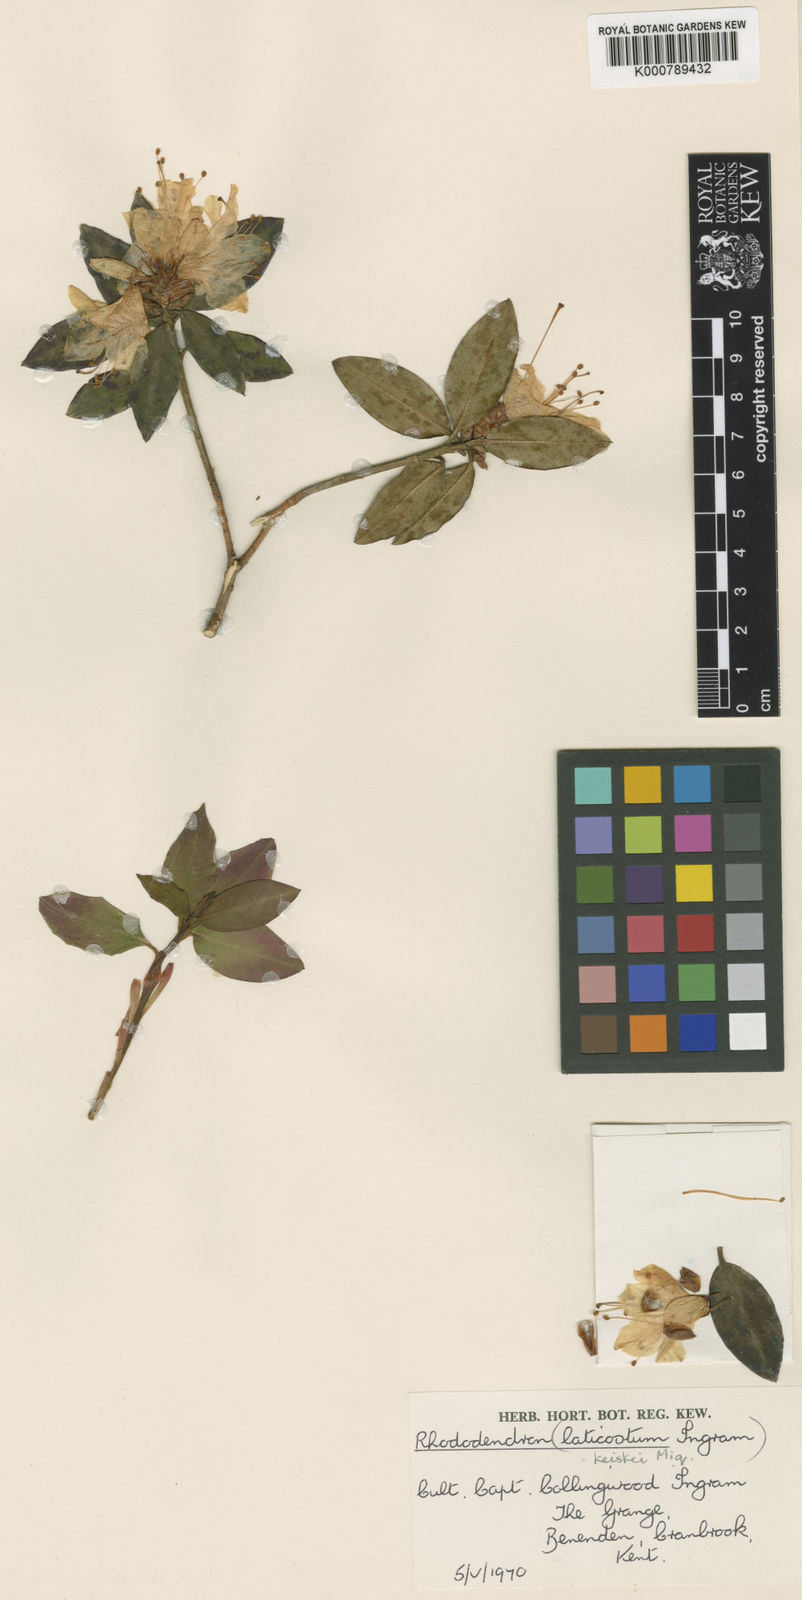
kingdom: Plantae
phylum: Tracheophyta
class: Magnoliopsida
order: Ericales
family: Ericaceae
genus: Rhododendron
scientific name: Rhododendron
